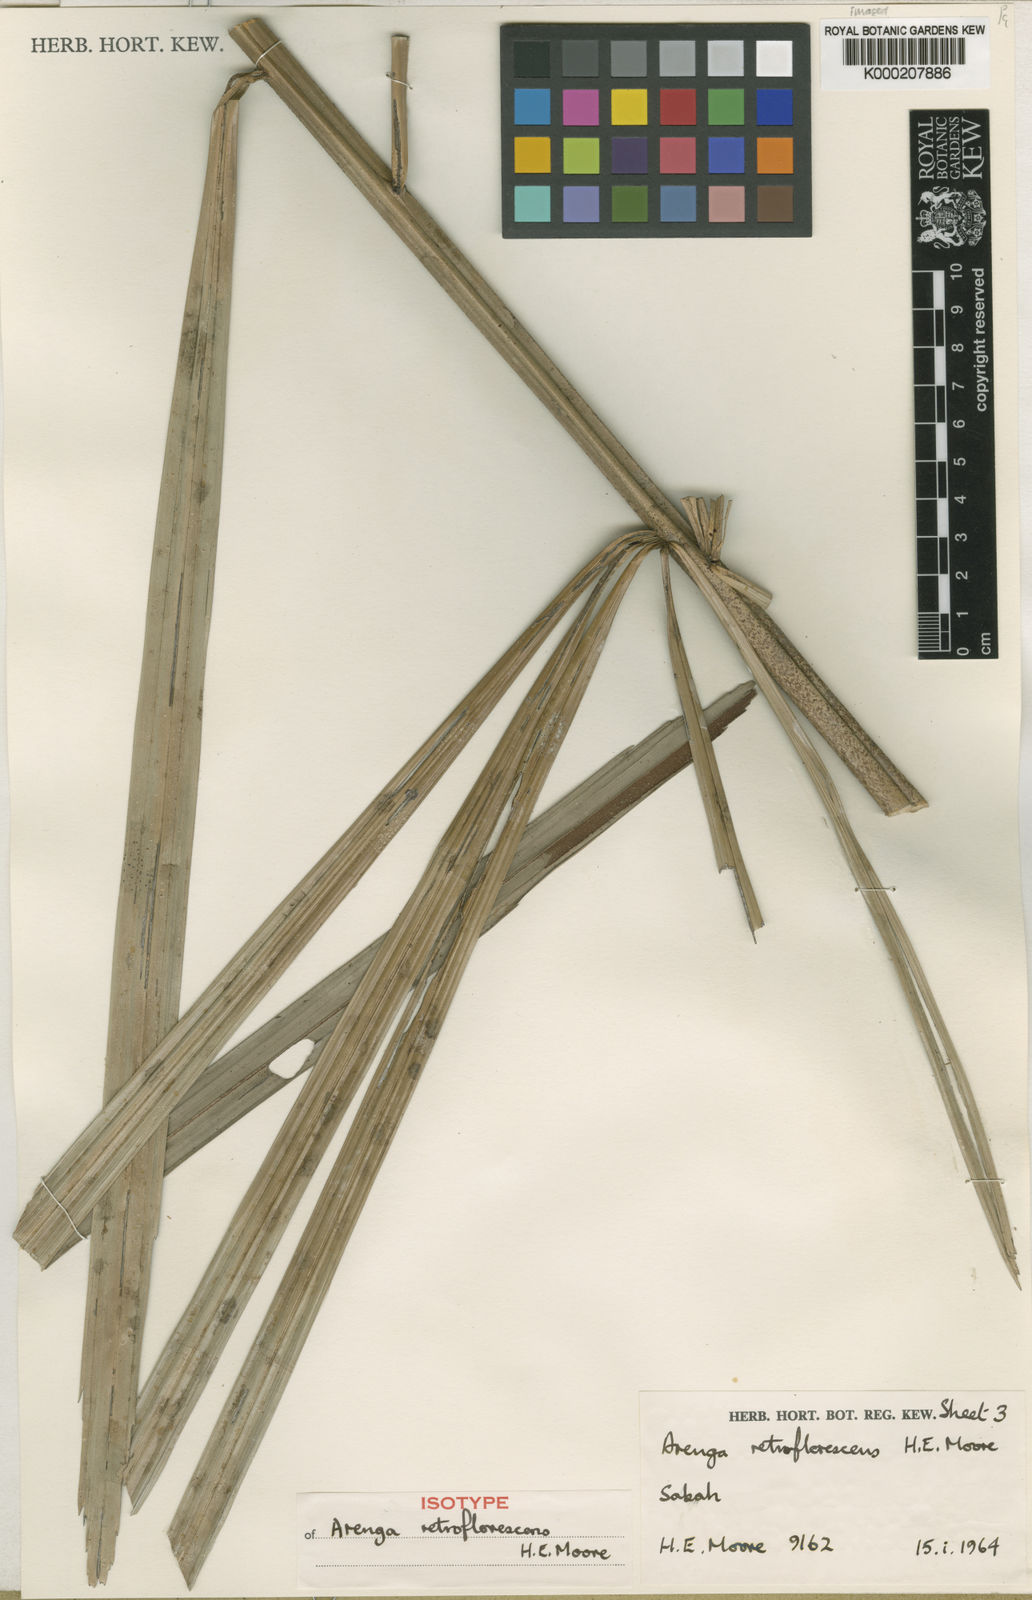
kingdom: Plantae
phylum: Tracheophyta
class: Liliopsida
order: Arecales
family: Arecaceae
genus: Arenga
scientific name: Arenga retroflorescens
